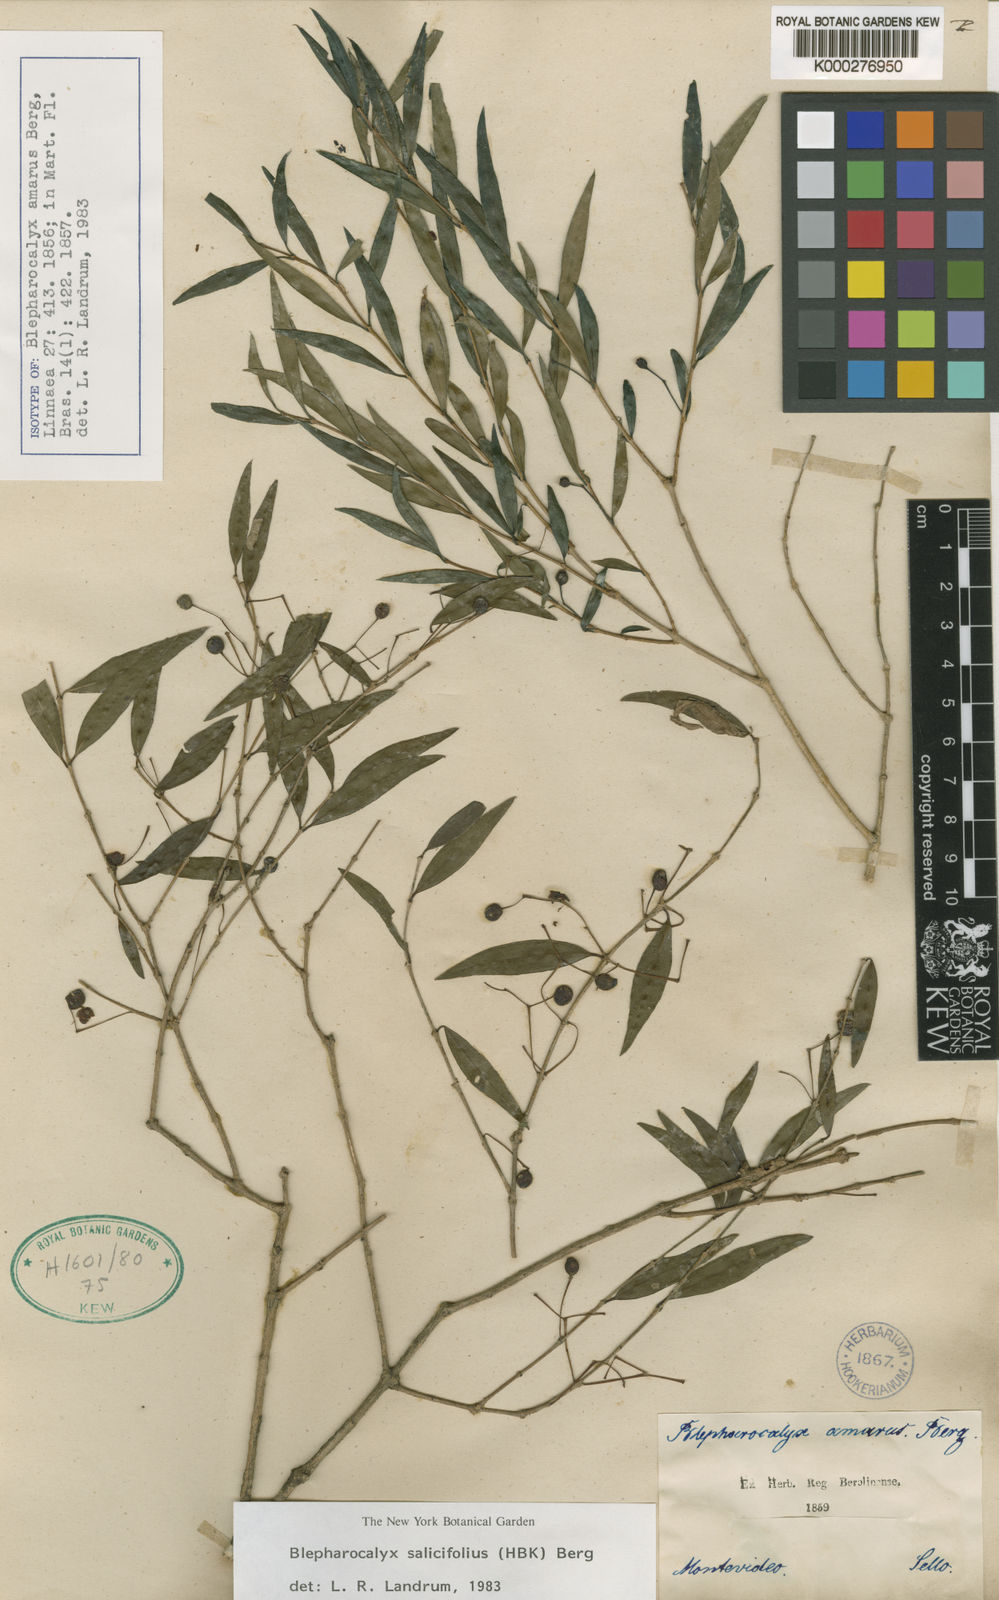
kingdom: Plantae
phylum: Tracheophyta
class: Magnoliopsida
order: Myrtales
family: Myrtaceae
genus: Blepharocalyx
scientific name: Blepharocalyx salicifolius
